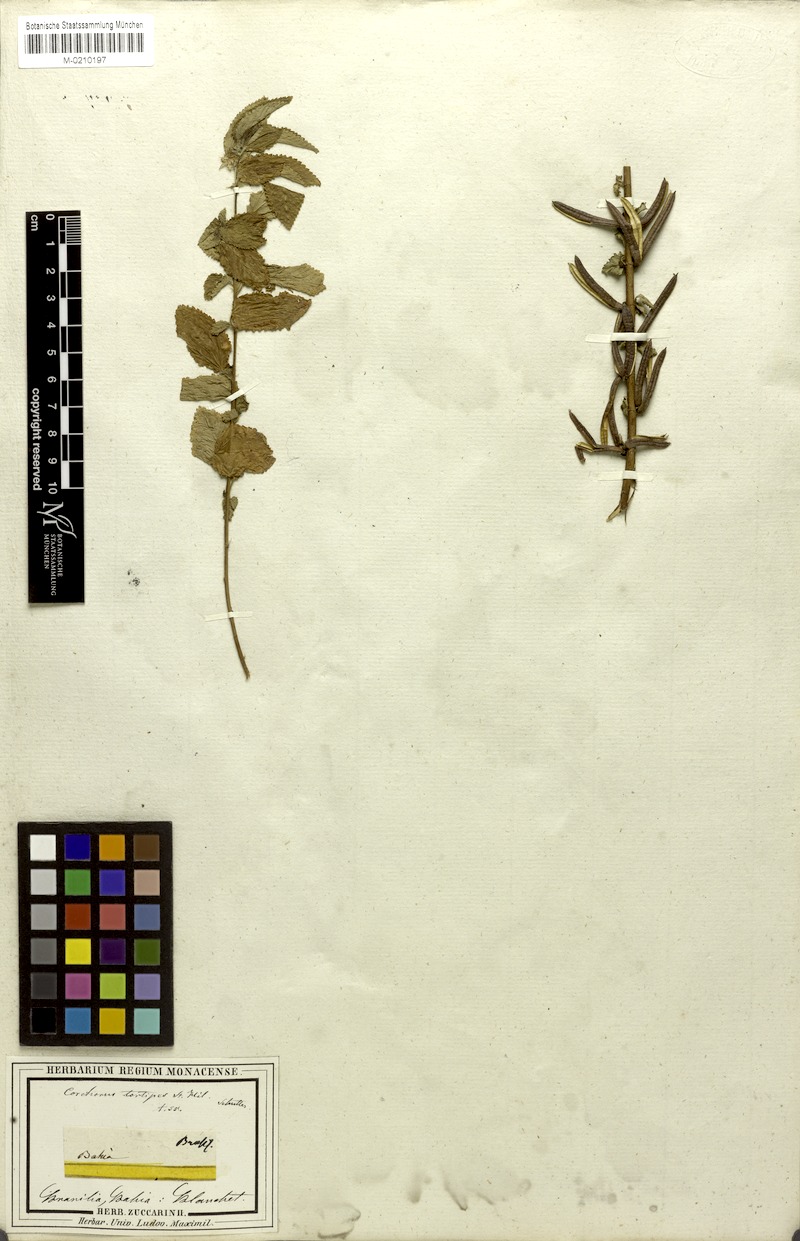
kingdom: Plantae
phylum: Tracheophyta
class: Magnoliopsida
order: Malvales
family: Malvaceae
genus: Corchorus
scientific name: Corchorus hirtus
